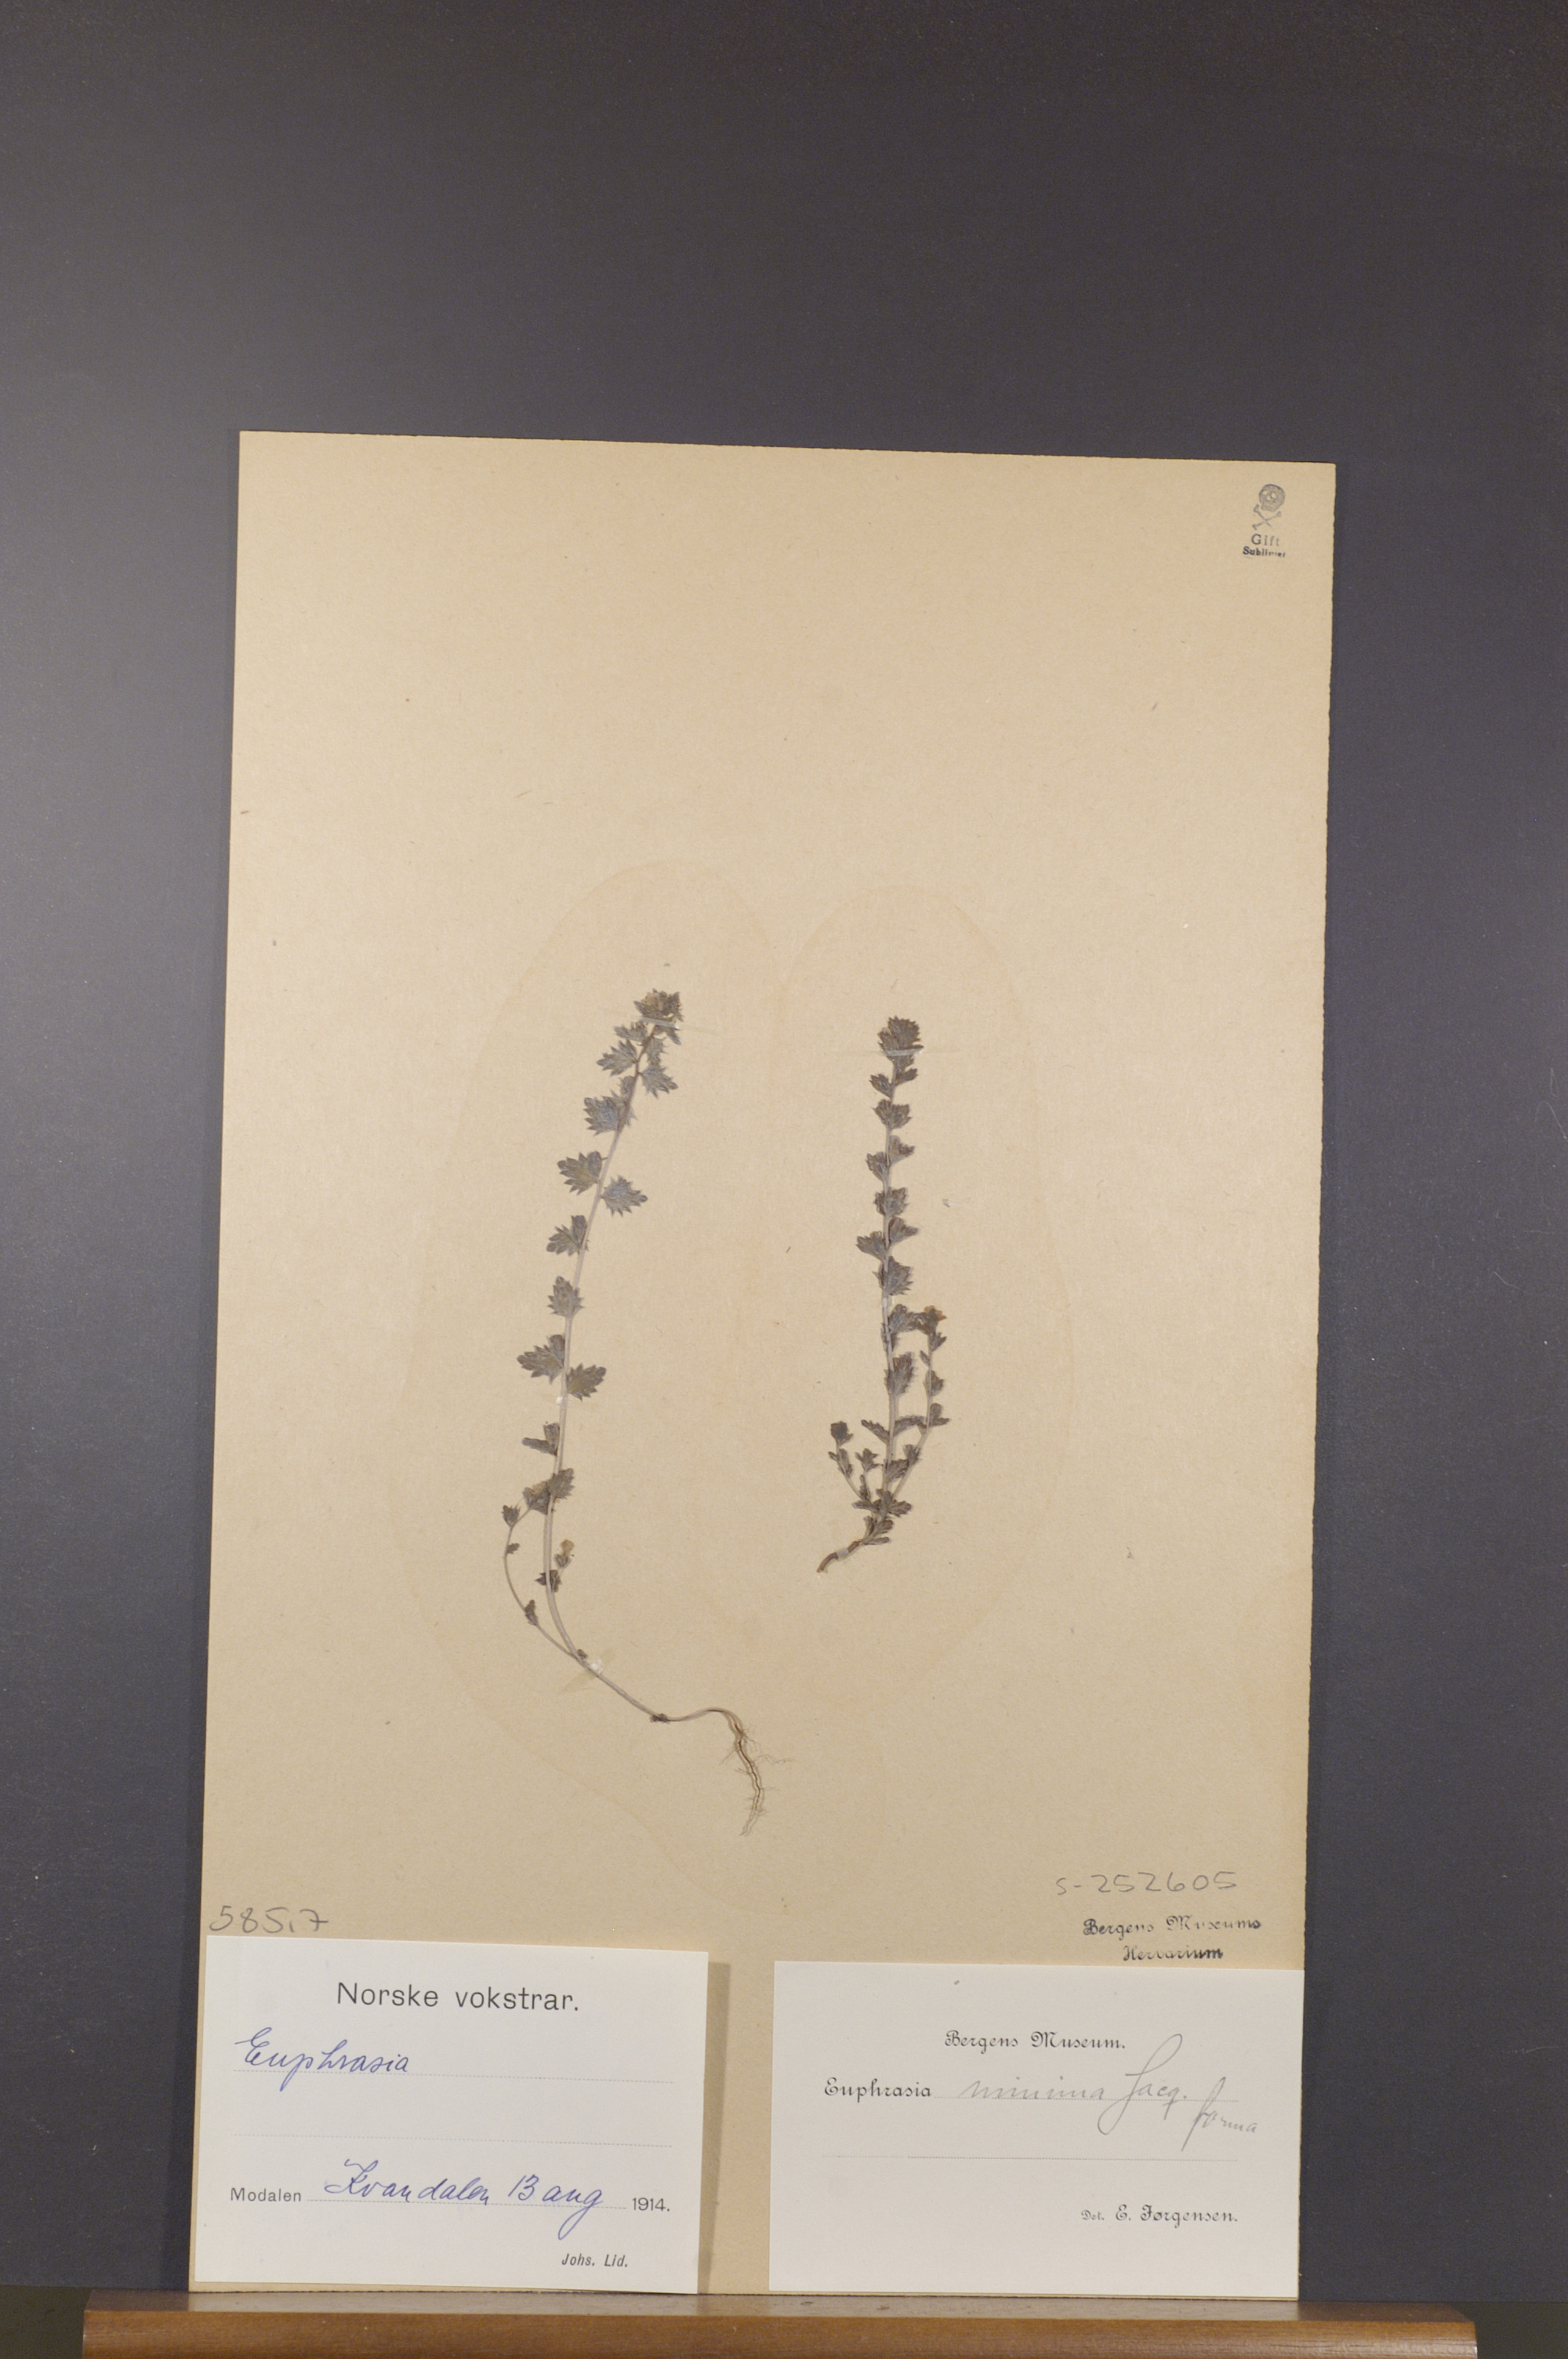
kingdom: Plantae
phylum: Tracheophyta
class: Magnoliopsida
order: Lamiales
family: Orobanchaceae
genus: Euphrasia
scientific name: Euphrasia minima
